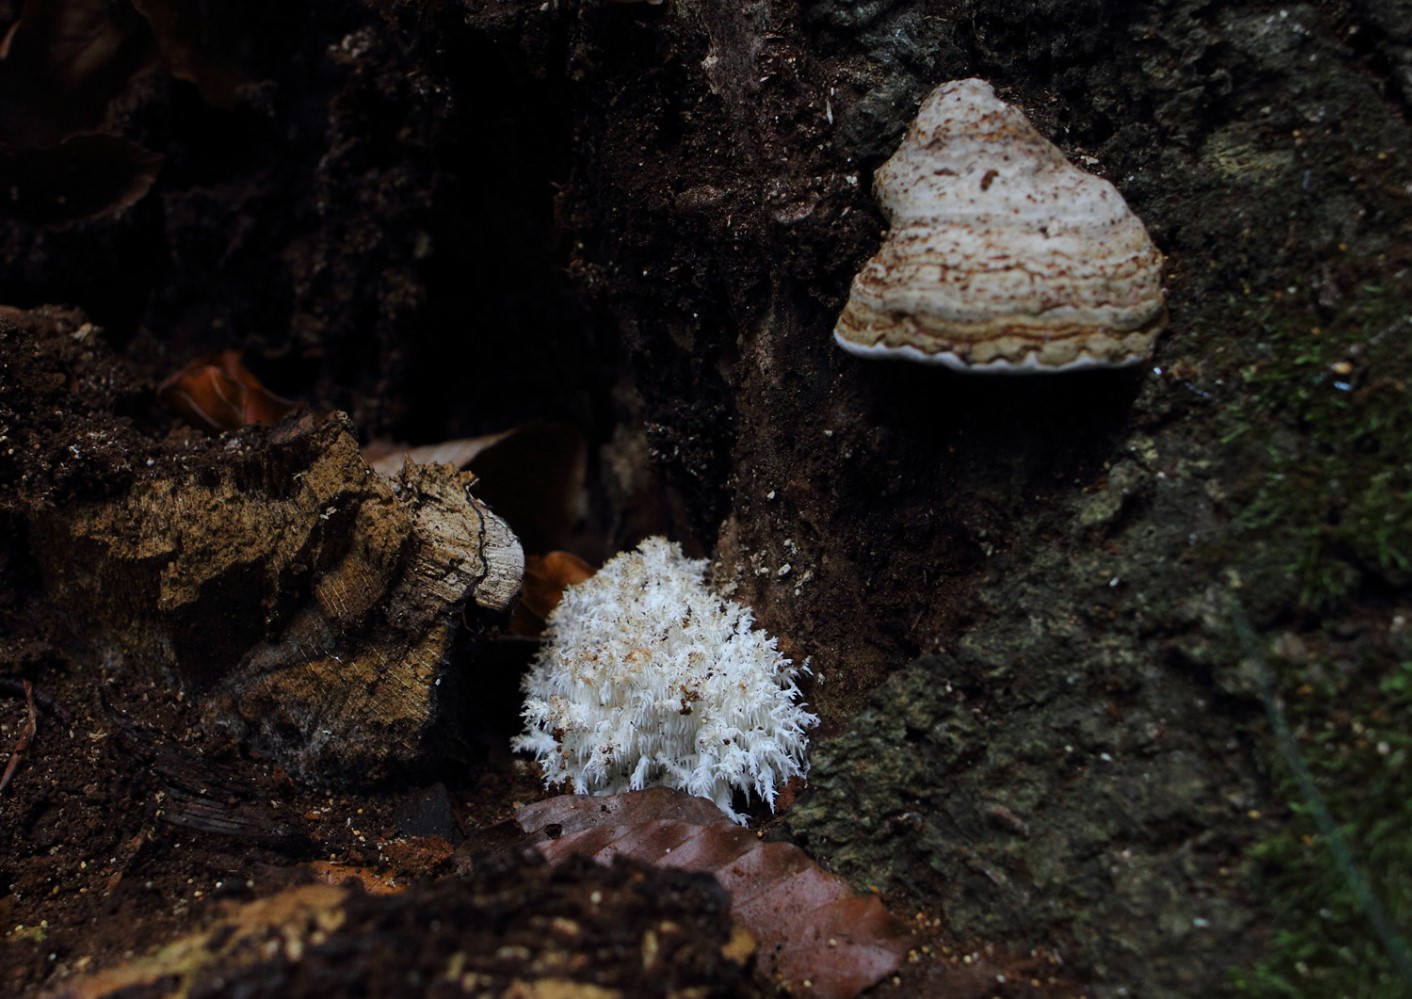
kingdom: Fungi
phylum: Basidiomycota
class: Agaricomycetes
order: Russulales
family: Hericiaceae
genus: Hericium
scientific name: Hericium coralloides
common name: koralpigsvamp
